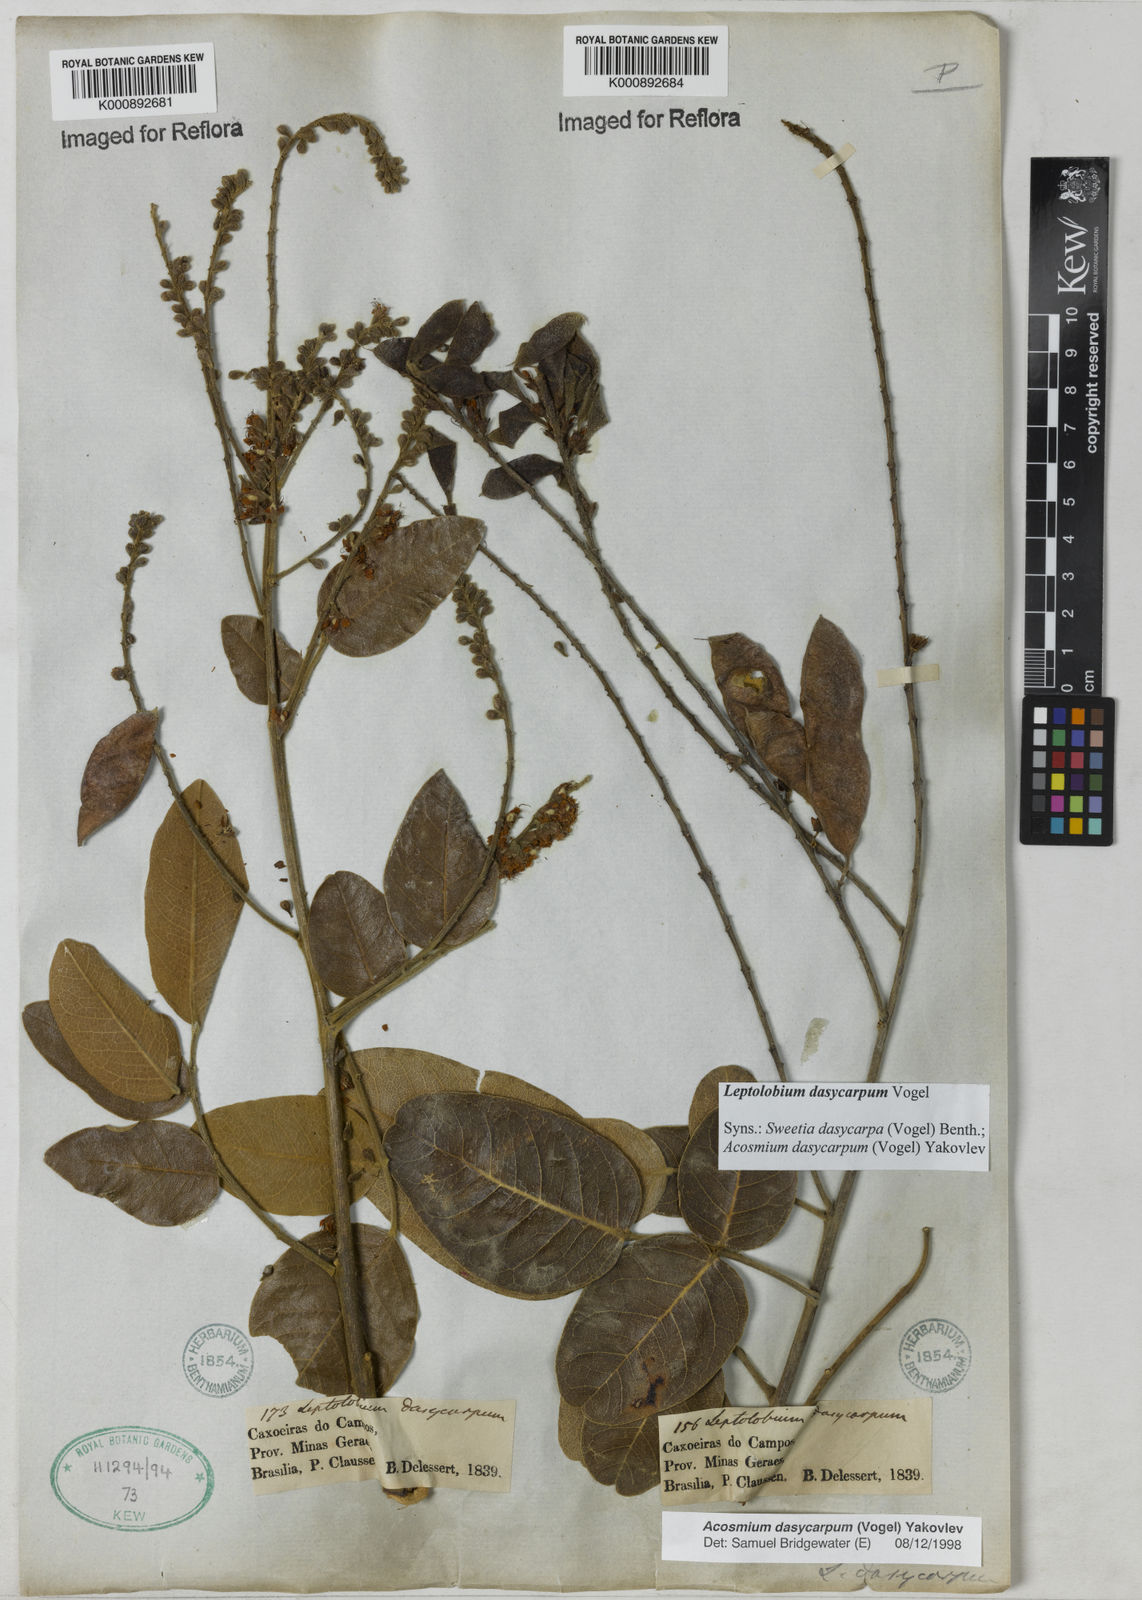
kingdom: Plantae
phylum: Tracheophyta
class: Magnoliopsida
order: Fabales
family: Fabaceae
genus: Leptolobium
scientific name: Leptolobium dasycarpum
